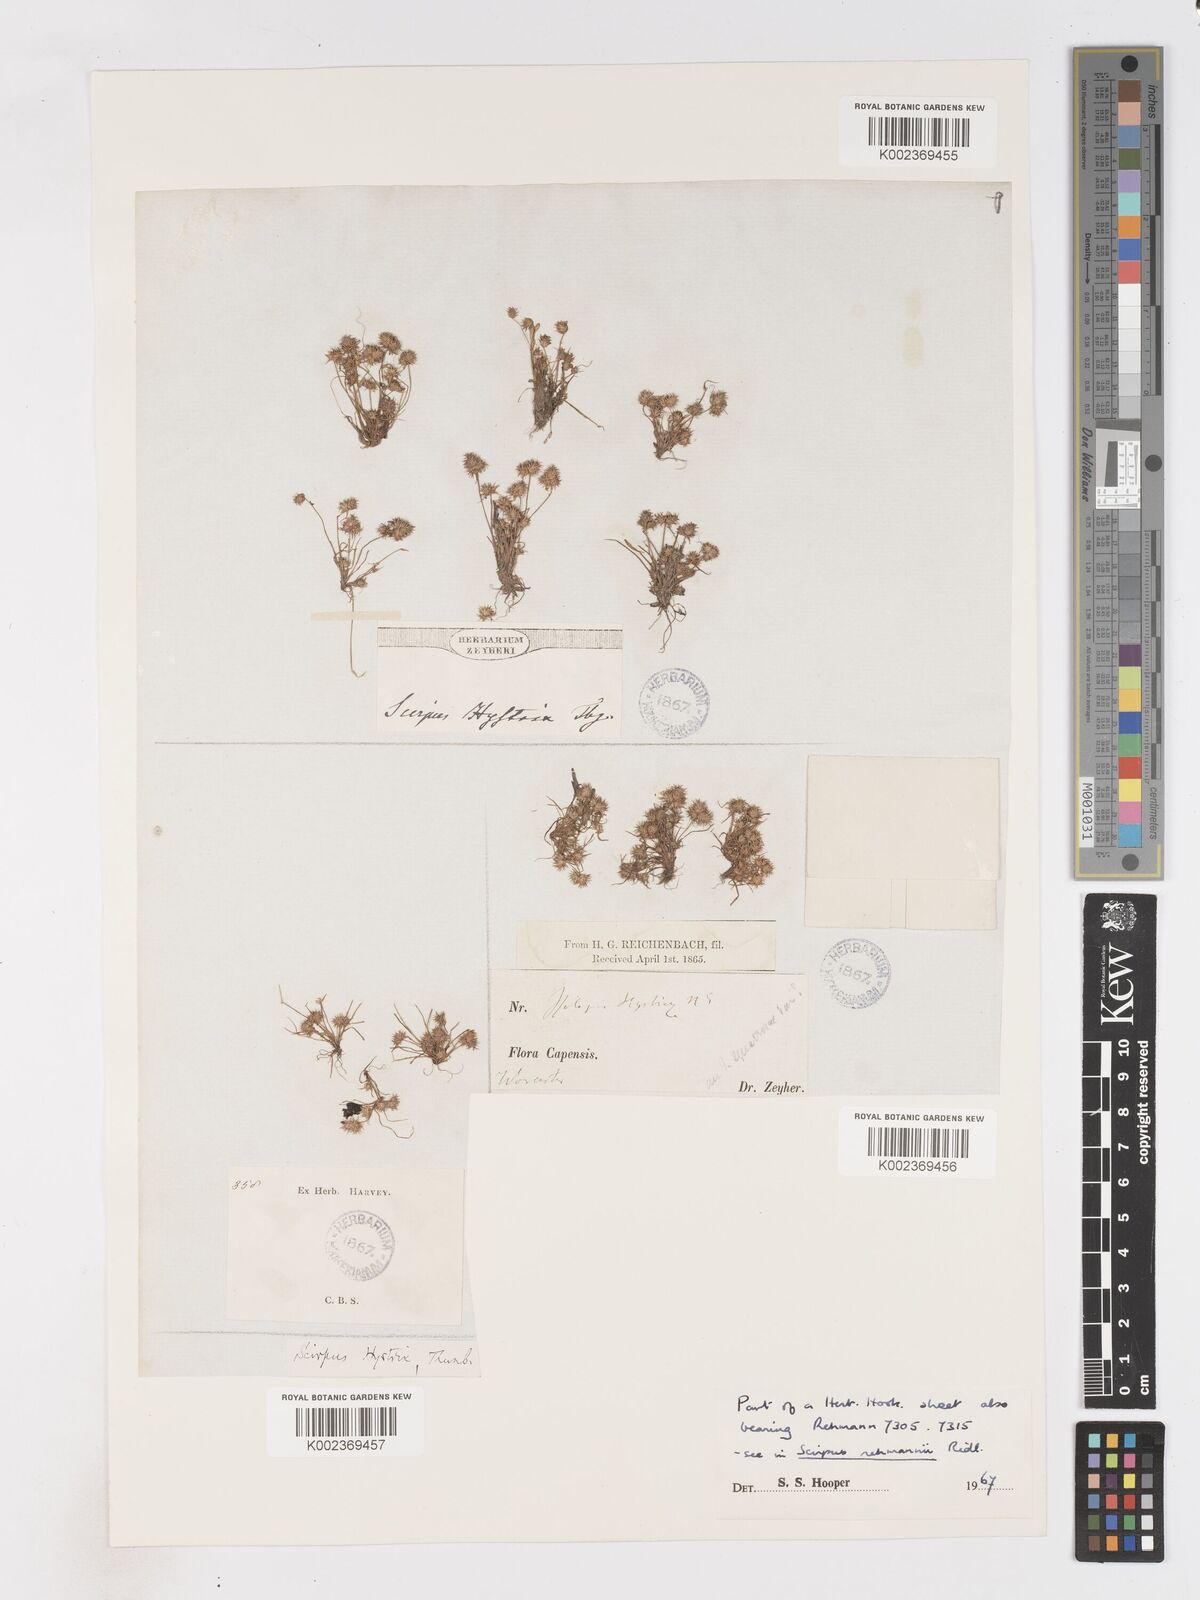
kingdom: Plantae
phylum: Tracheophyta
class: Liliopsida
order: Poales
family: Cyperaceae
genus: Isolepis
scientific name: Isolepis hystrix
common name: Bottlebrush bulrush
